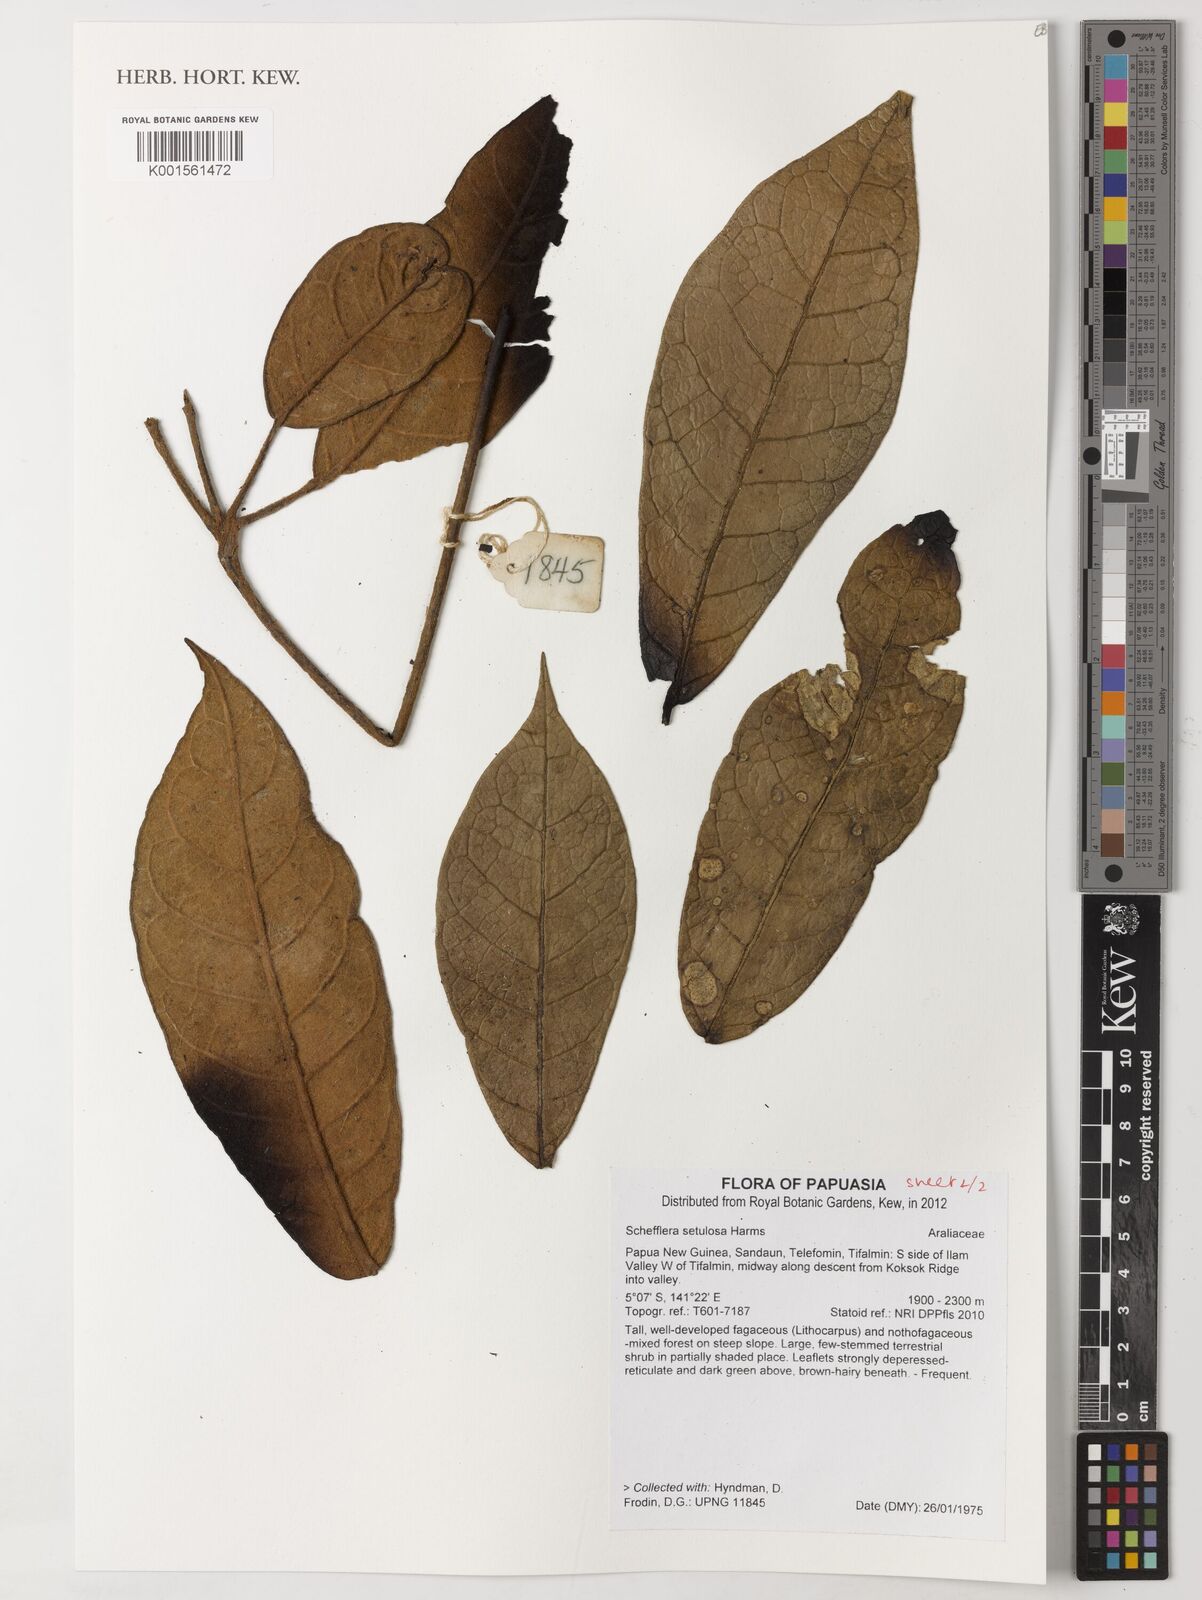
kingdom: Plantae
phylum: Tracheophyta
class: Magnoliopsida
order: Apiales
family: Araliaceae
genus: Heptapleurum
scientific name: Heptapleurum setulosum
